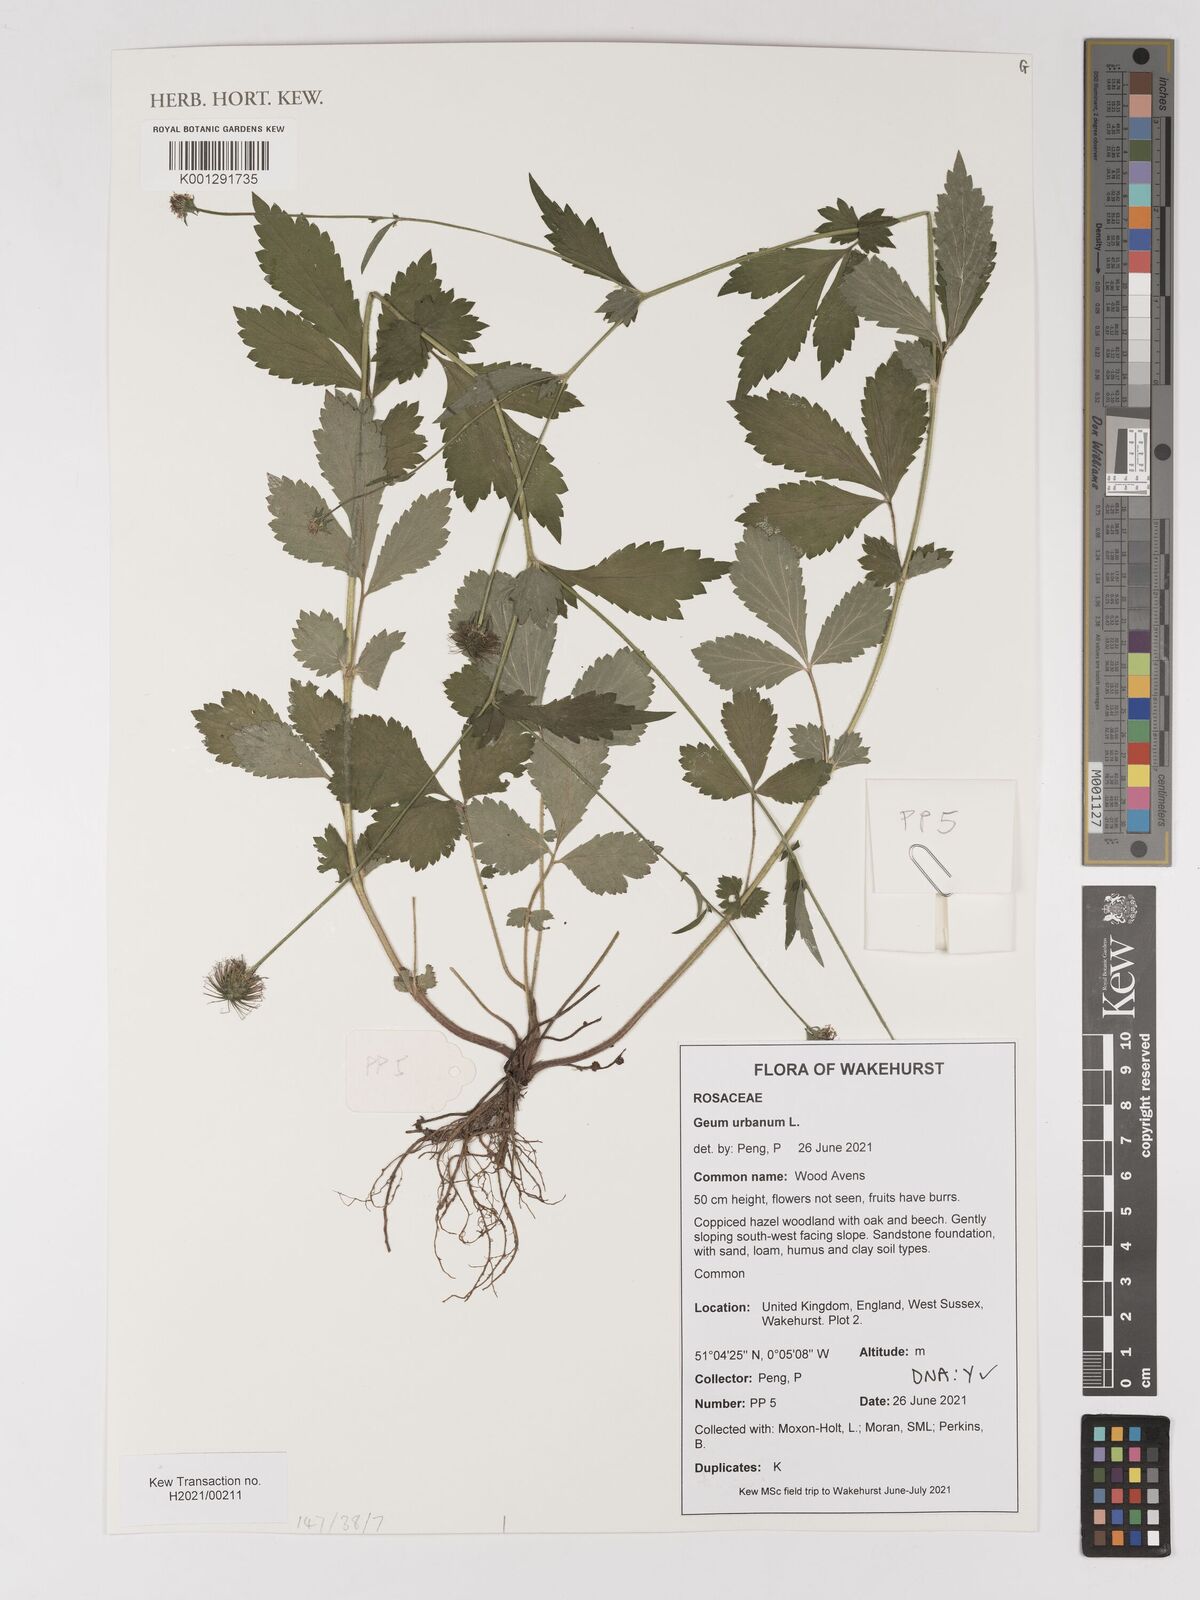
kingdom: Plantae
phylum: Tracheophyta
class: Magnoliopsida
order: Rosales
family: Rosaceae
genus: Geum
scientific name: Geum urbanum
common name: Wood avens
